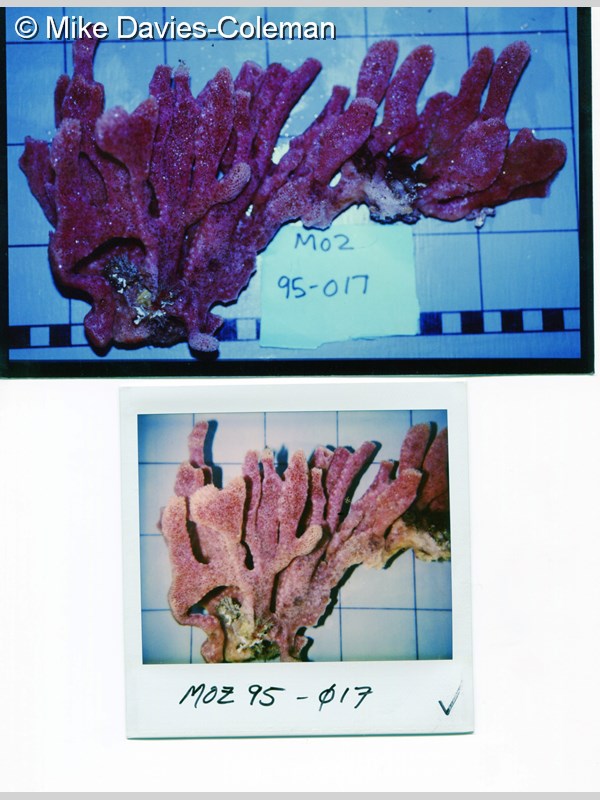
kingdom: Animalia
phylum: Porifera
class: Demospongiae
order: Haplosclerida
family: Niphatidae
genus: Niphates
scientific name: Niphates
